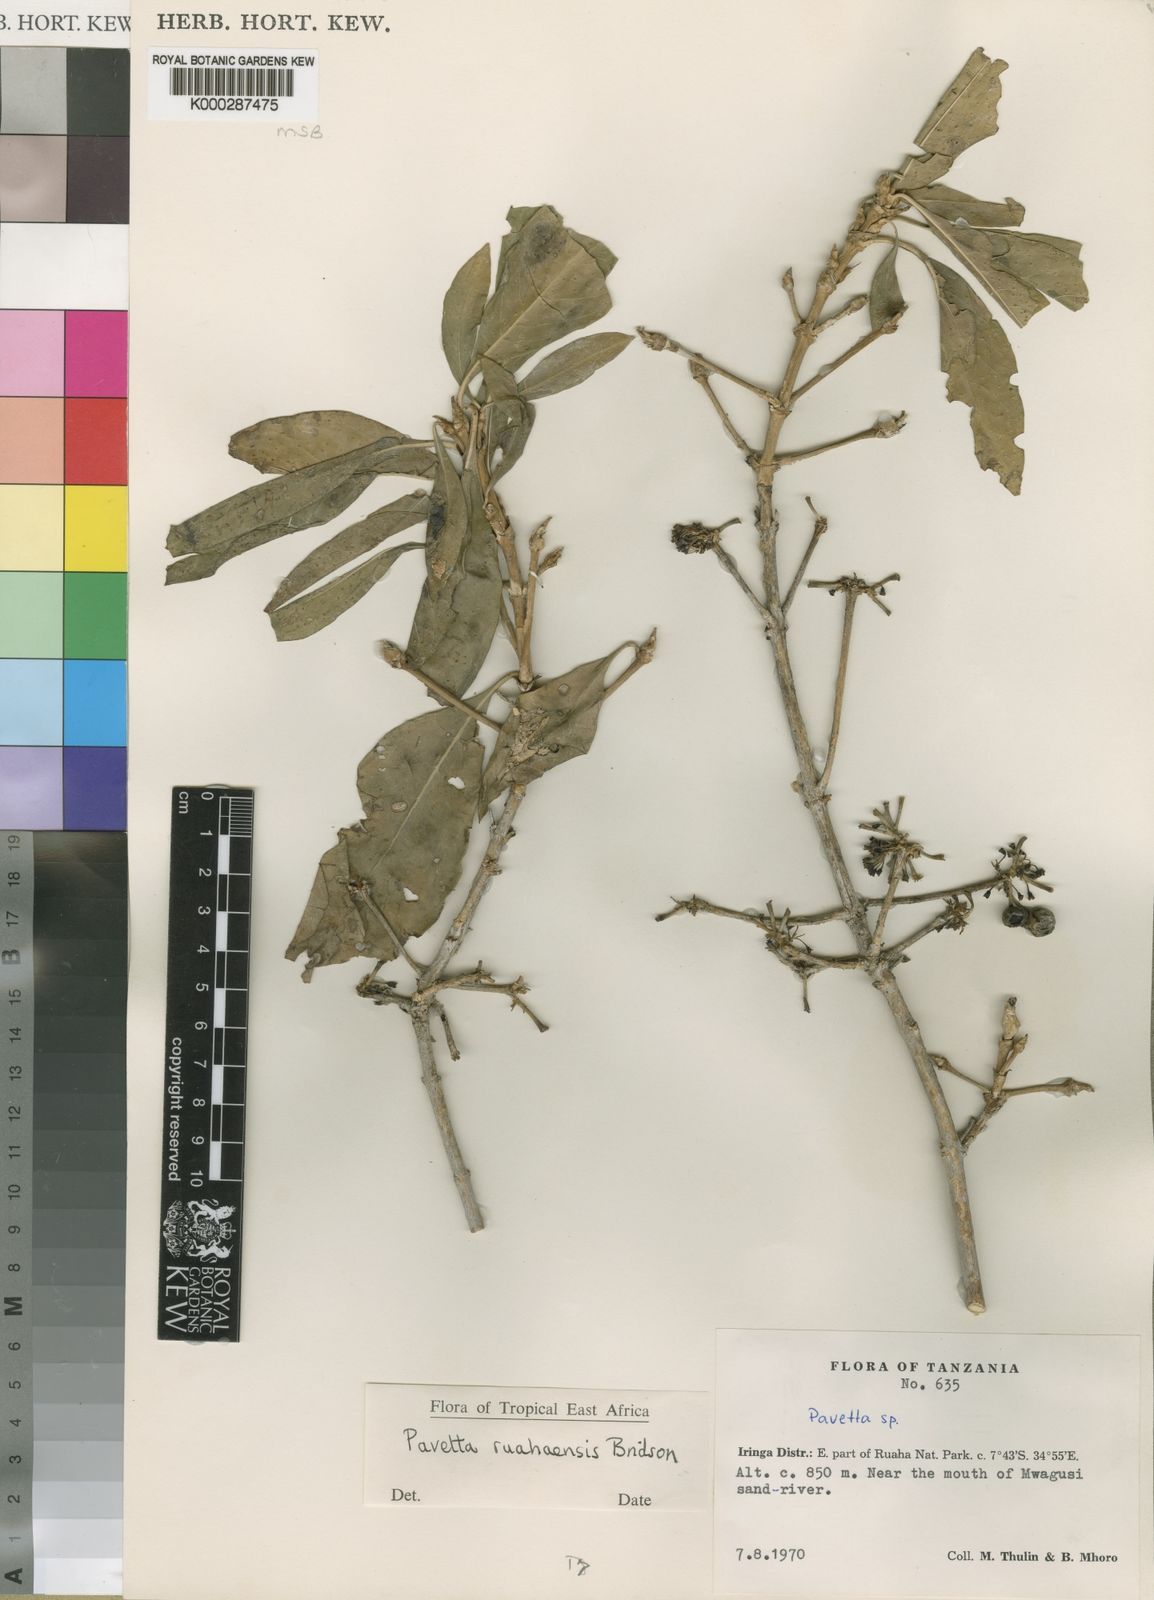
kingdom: Plantae
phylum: Tracheophyta
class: Magnoliopsida
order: Gentianales
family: Rubiaceae
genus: Pavetta
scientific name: Pavetta ruahaensis
